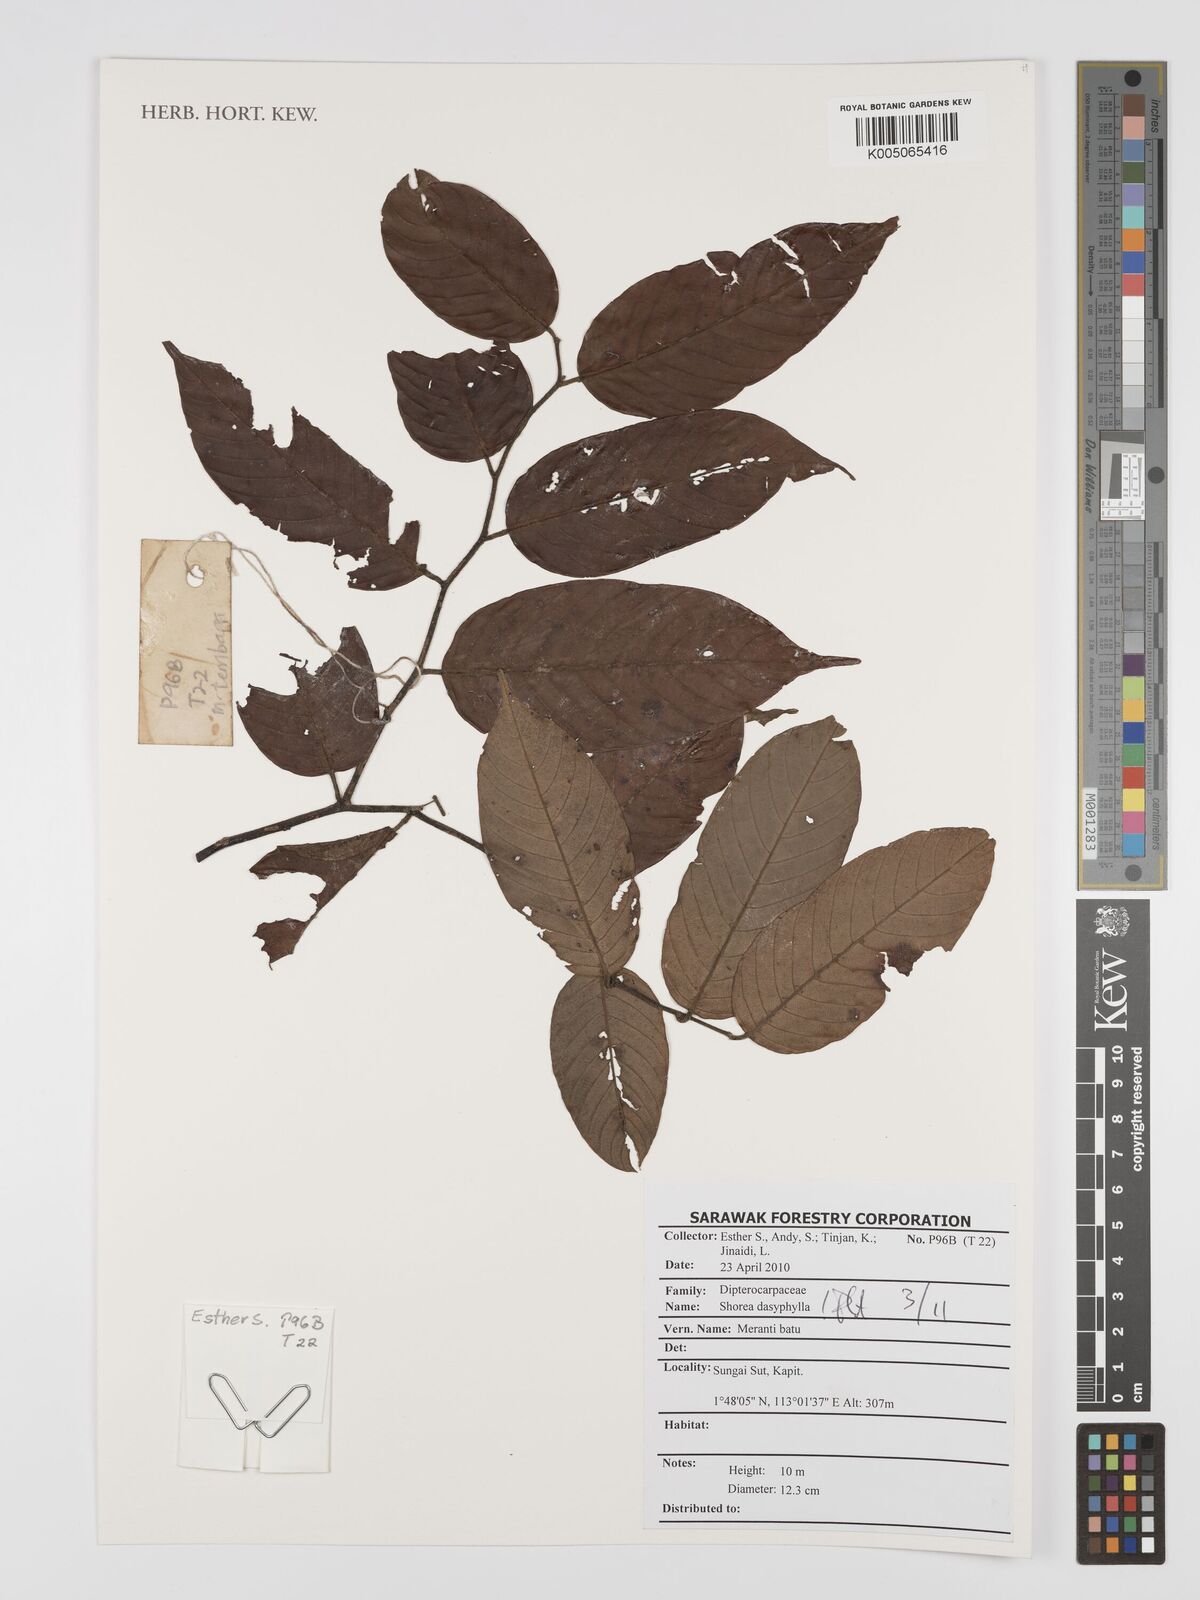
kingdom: Plantae
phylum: Tracheophyta
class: Magnoliopsida
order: Malvales
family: Dipterocarpaceae
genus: Shorea
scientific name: Shorea dasyphylla
